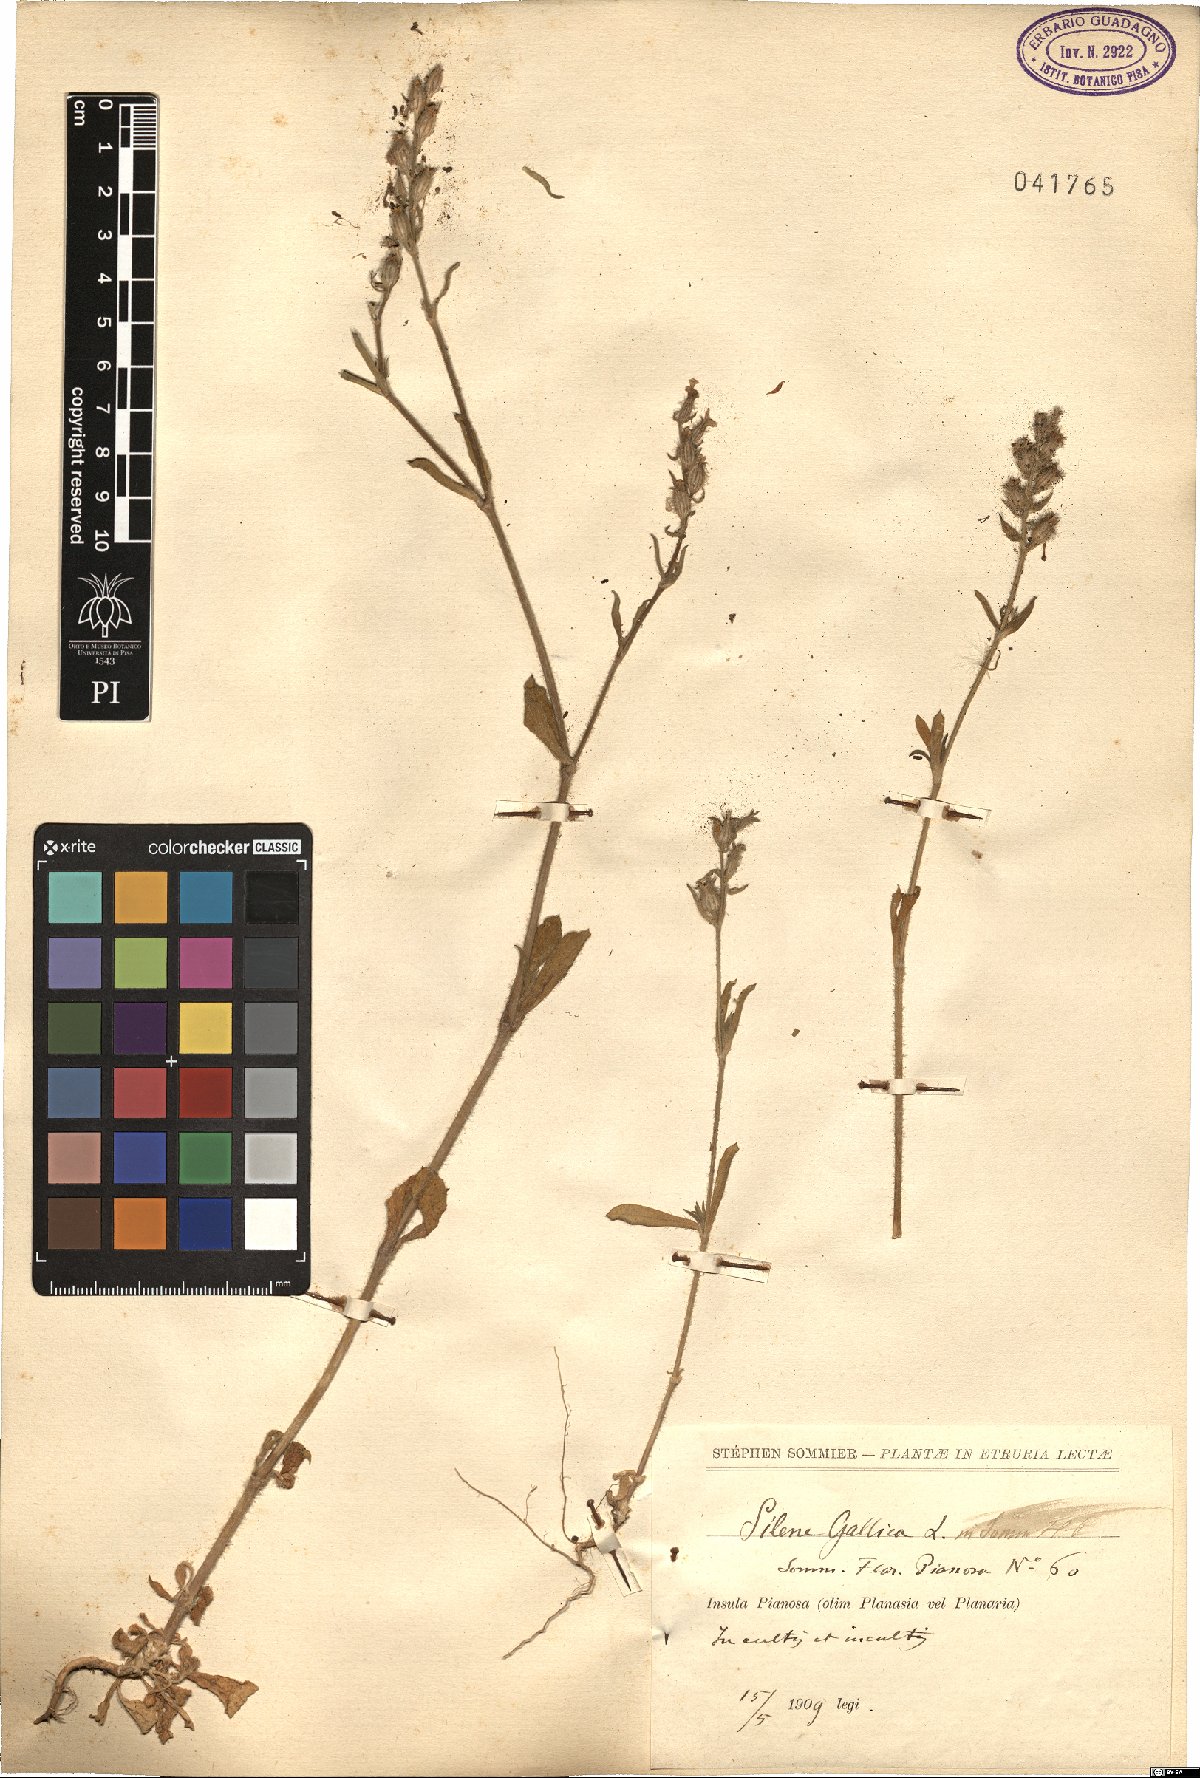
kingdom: Plantae
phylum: Tracheophyta
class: Magnoliopsida
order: Caryophyllales
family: Caryophyllaceae
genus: Silene
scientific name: Silene gallica
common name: Small-flowered catchfly
